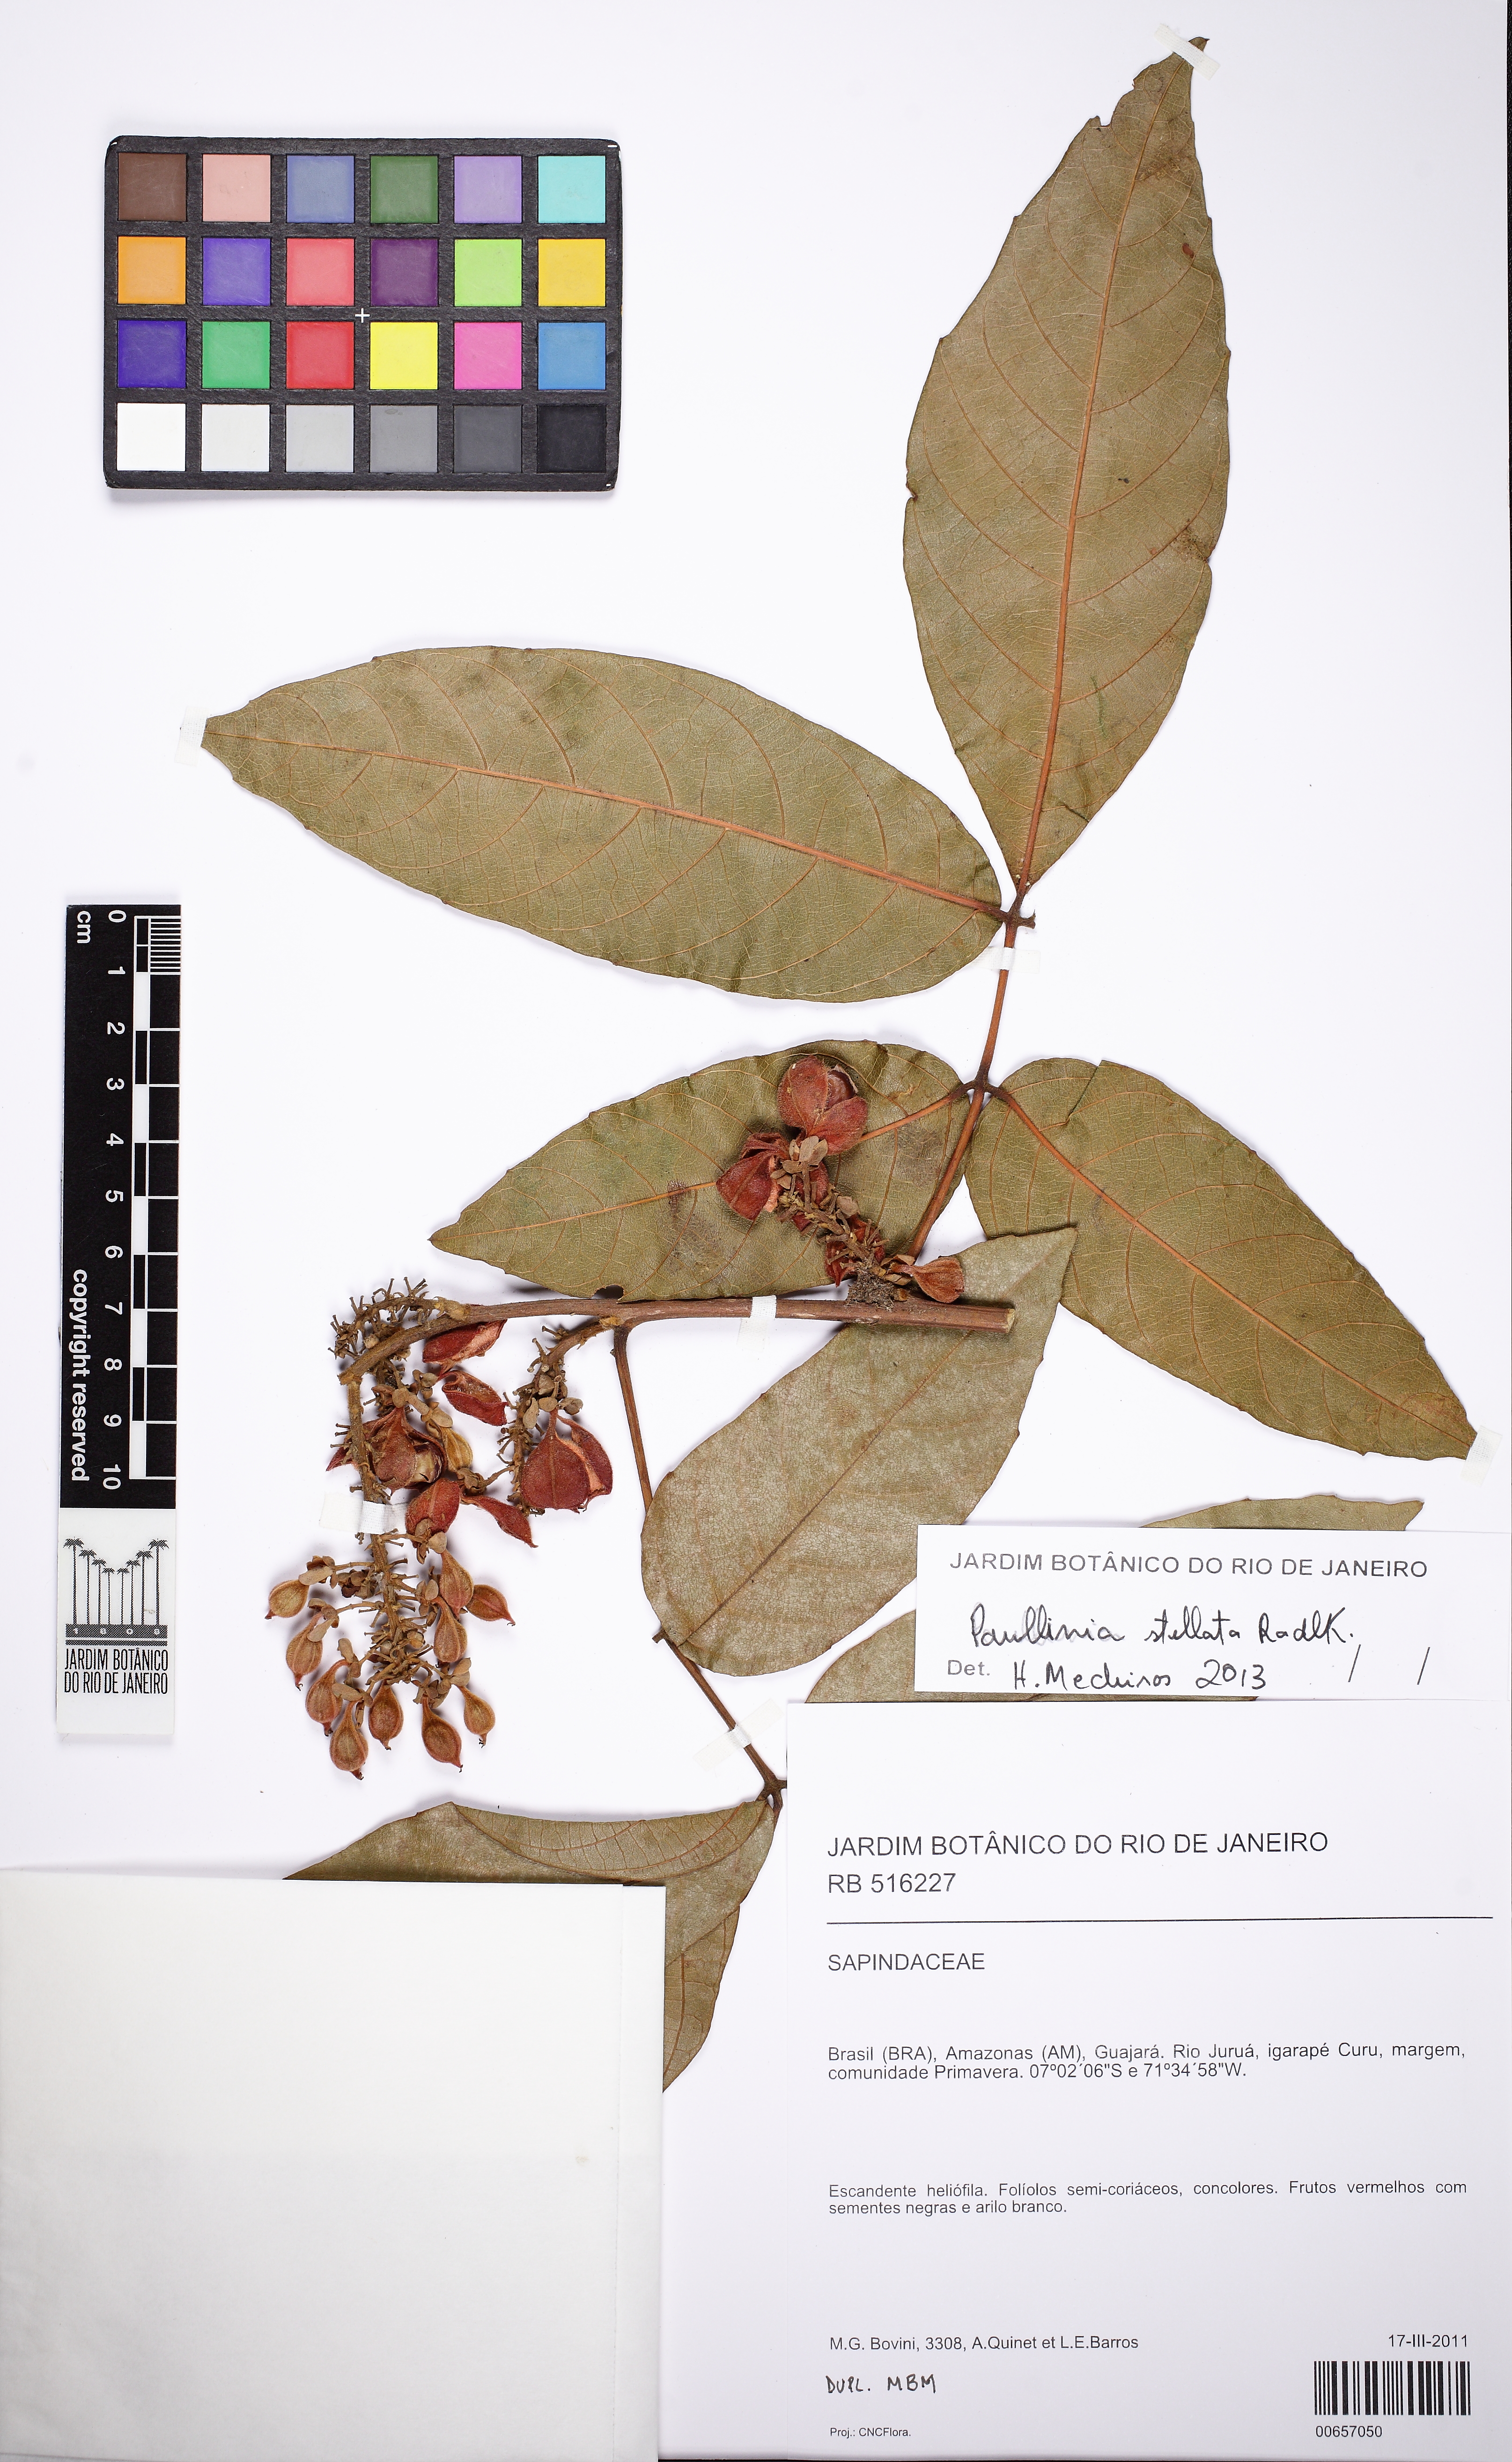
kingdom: Plantae
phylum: Tracheophyta
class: Magnoliopsida
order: Sapindales
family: Sapindaceae
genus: Paullinia
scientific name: Paullinia stellata
